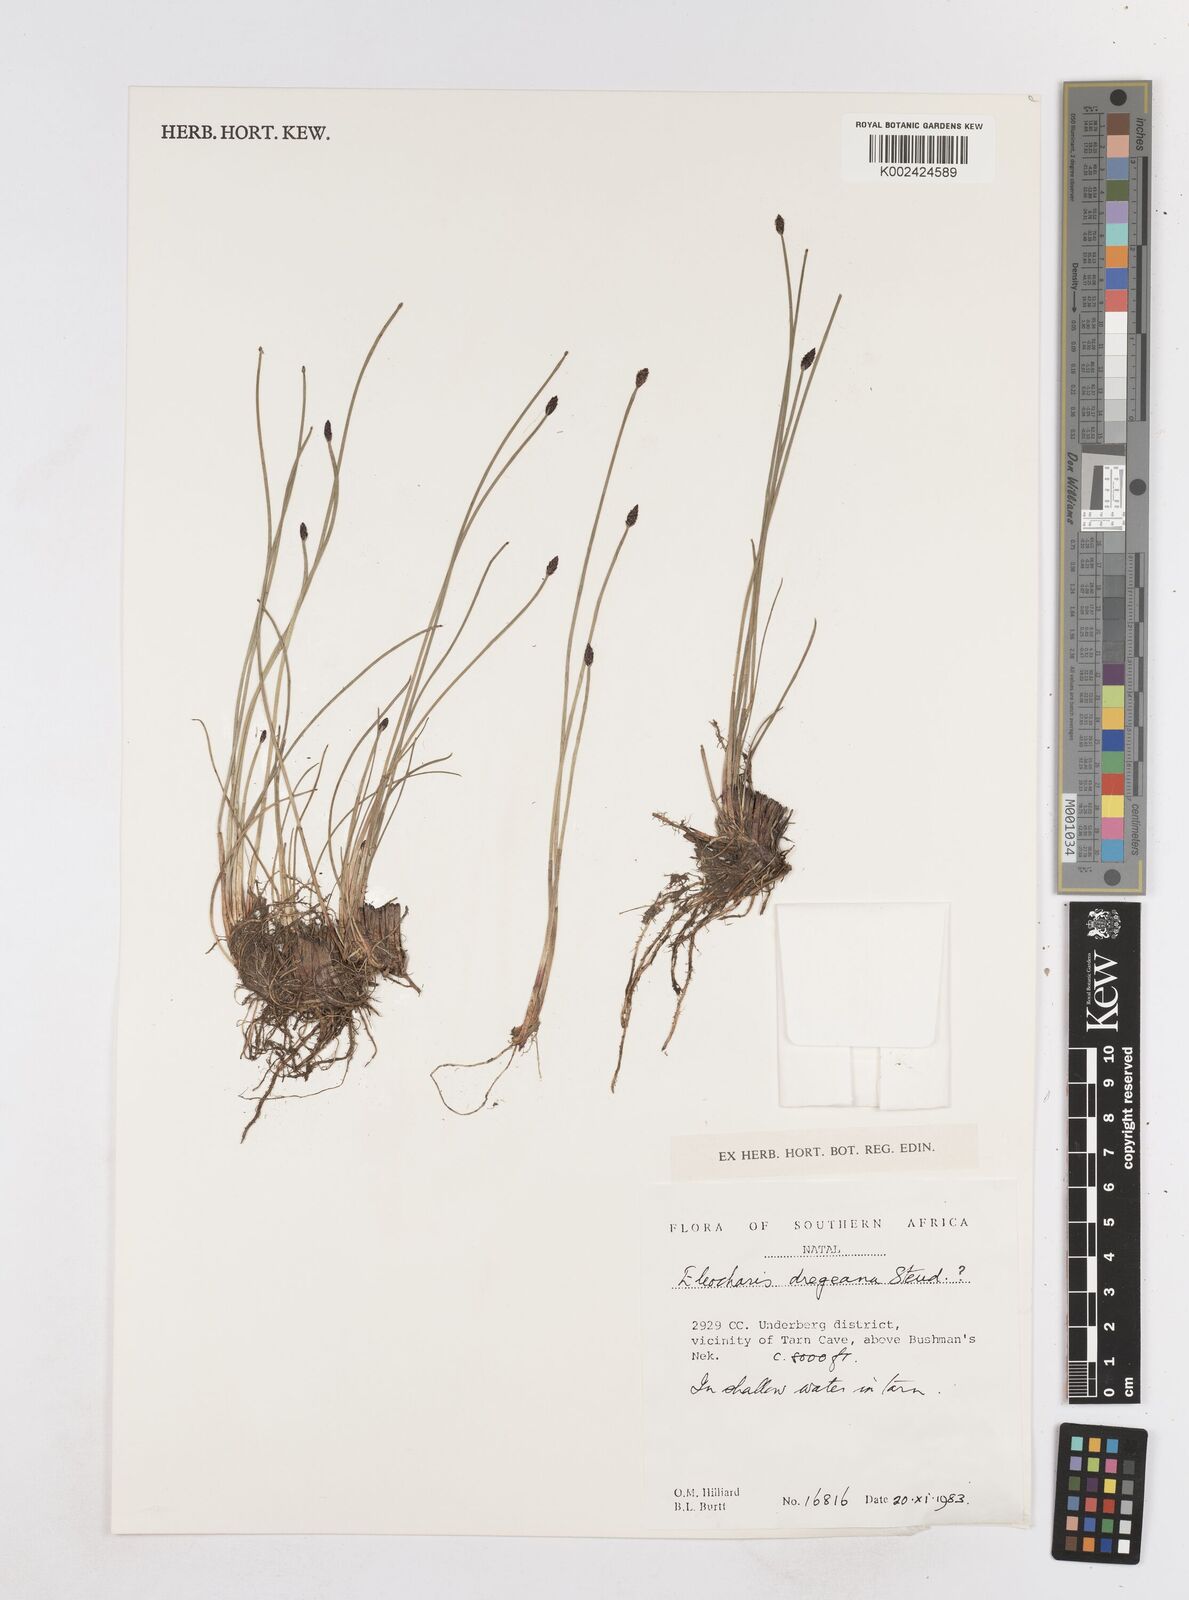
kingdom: Plantae
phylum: Tracheophyta
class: Liliopsida
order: Poales
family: Cyperaceae
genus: Eleocharis
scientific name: Eleocharis dregeana
